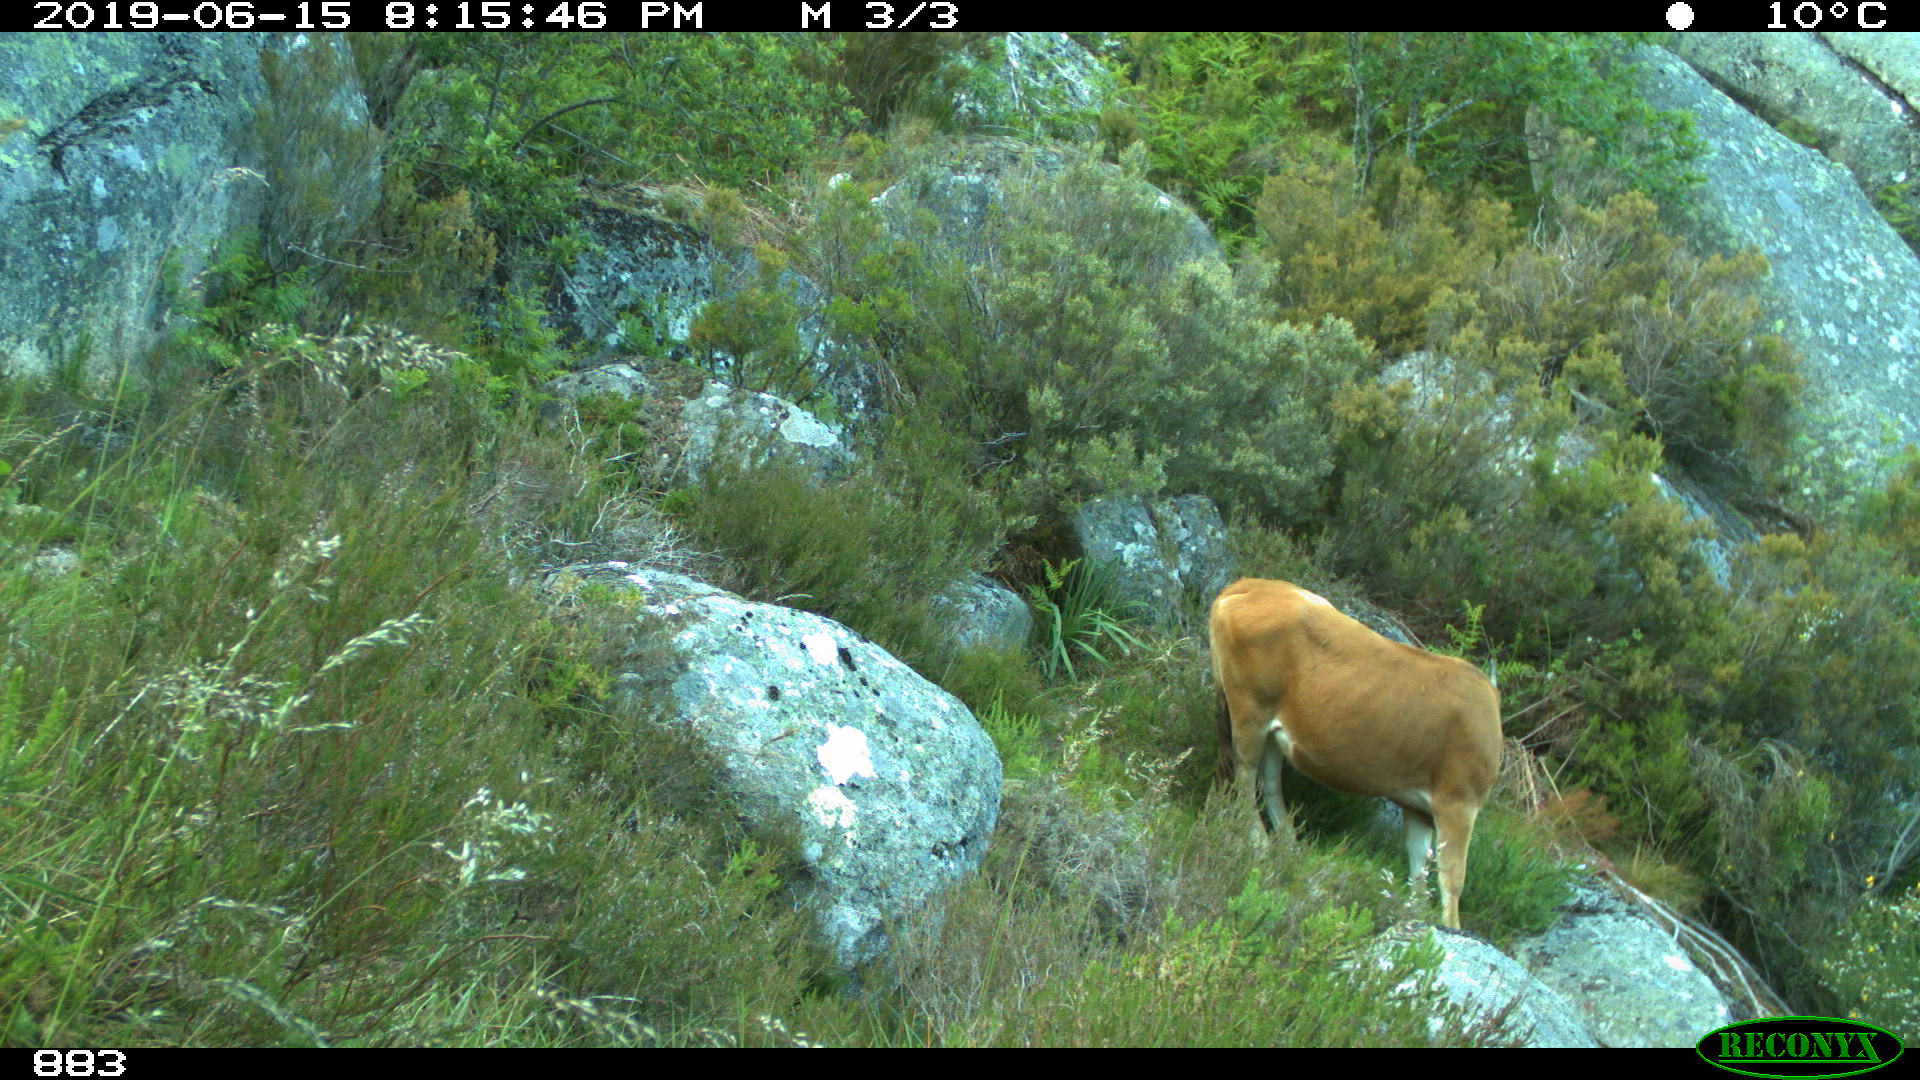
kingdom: Animalia
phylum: Chordata
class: Mammalia
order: Artiodactyla
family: Bovidae
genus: Bos
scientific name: Bos taurus
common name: Domesticated cattle
